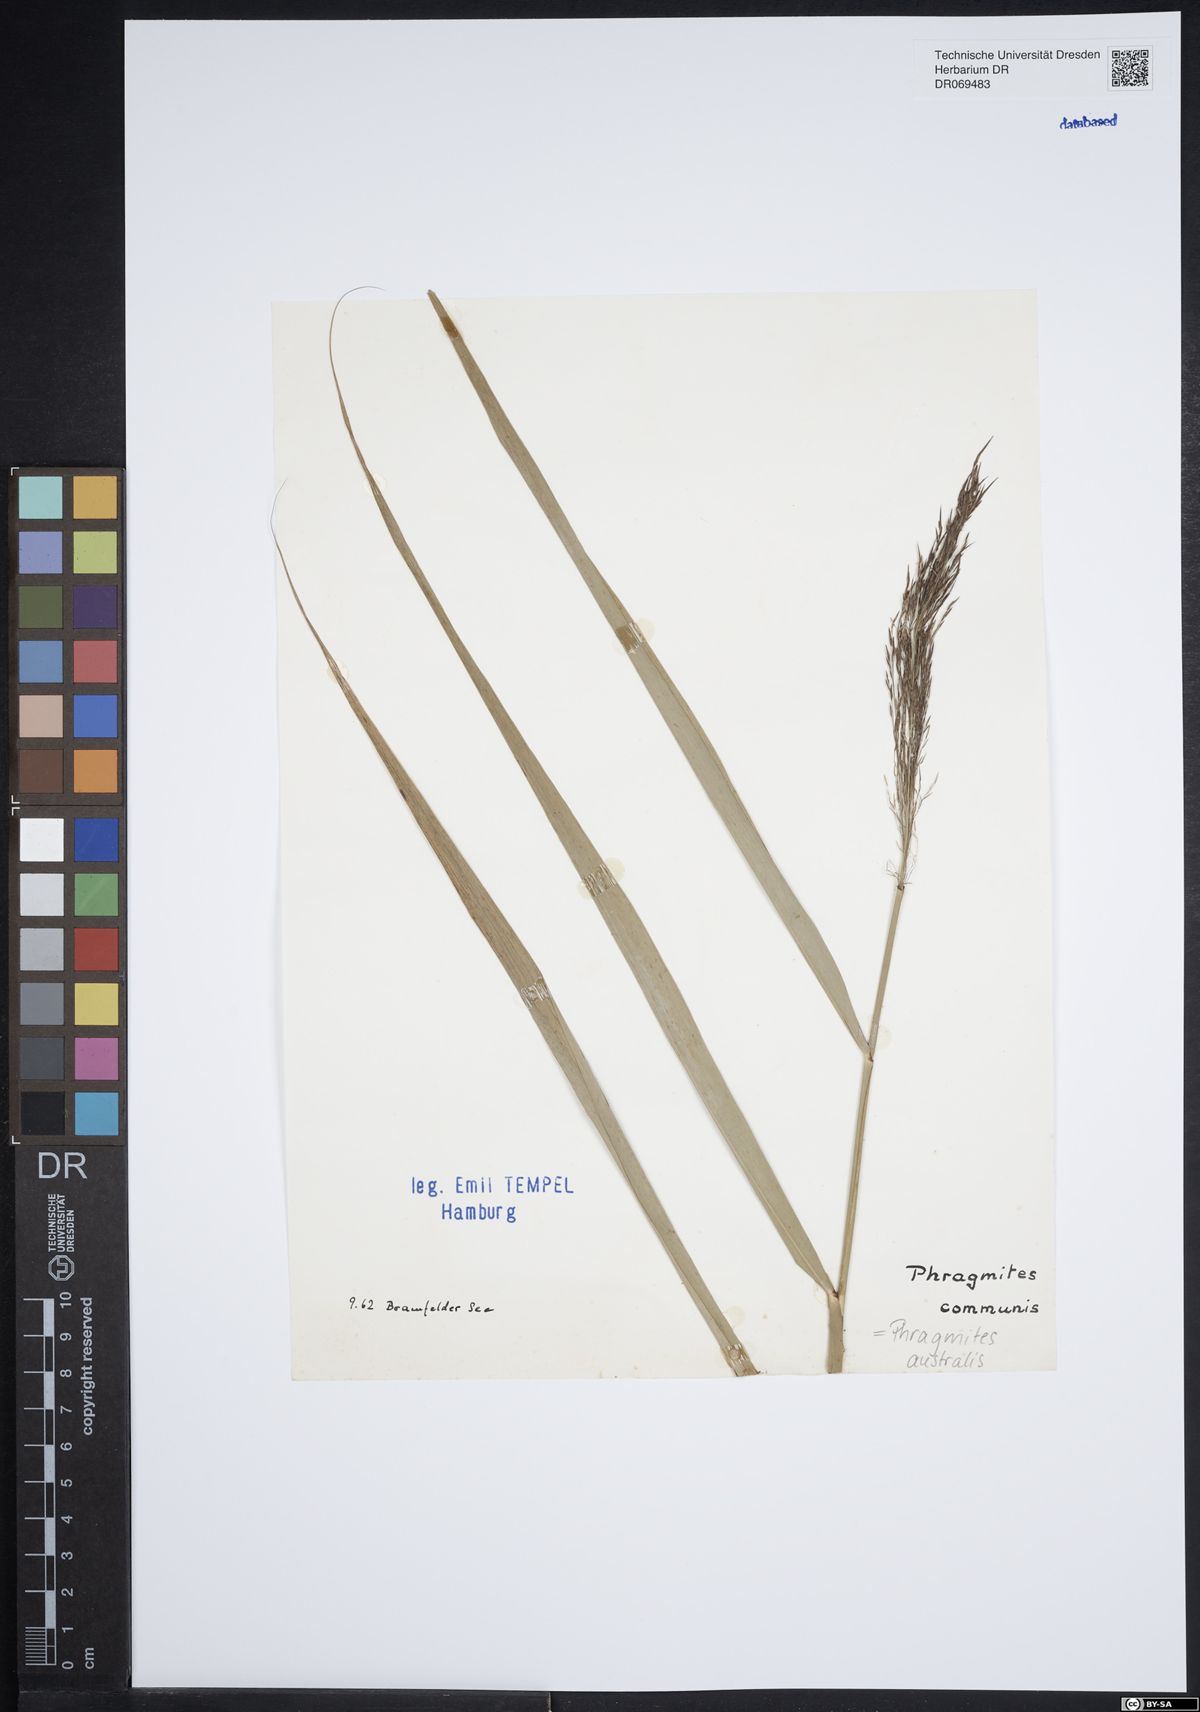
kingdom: Plantae
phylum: Tracheophyta
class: Liliopsida
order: Poales
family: Poaceae
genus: Phragmites
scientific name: Phragmites australis
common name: Common reed
